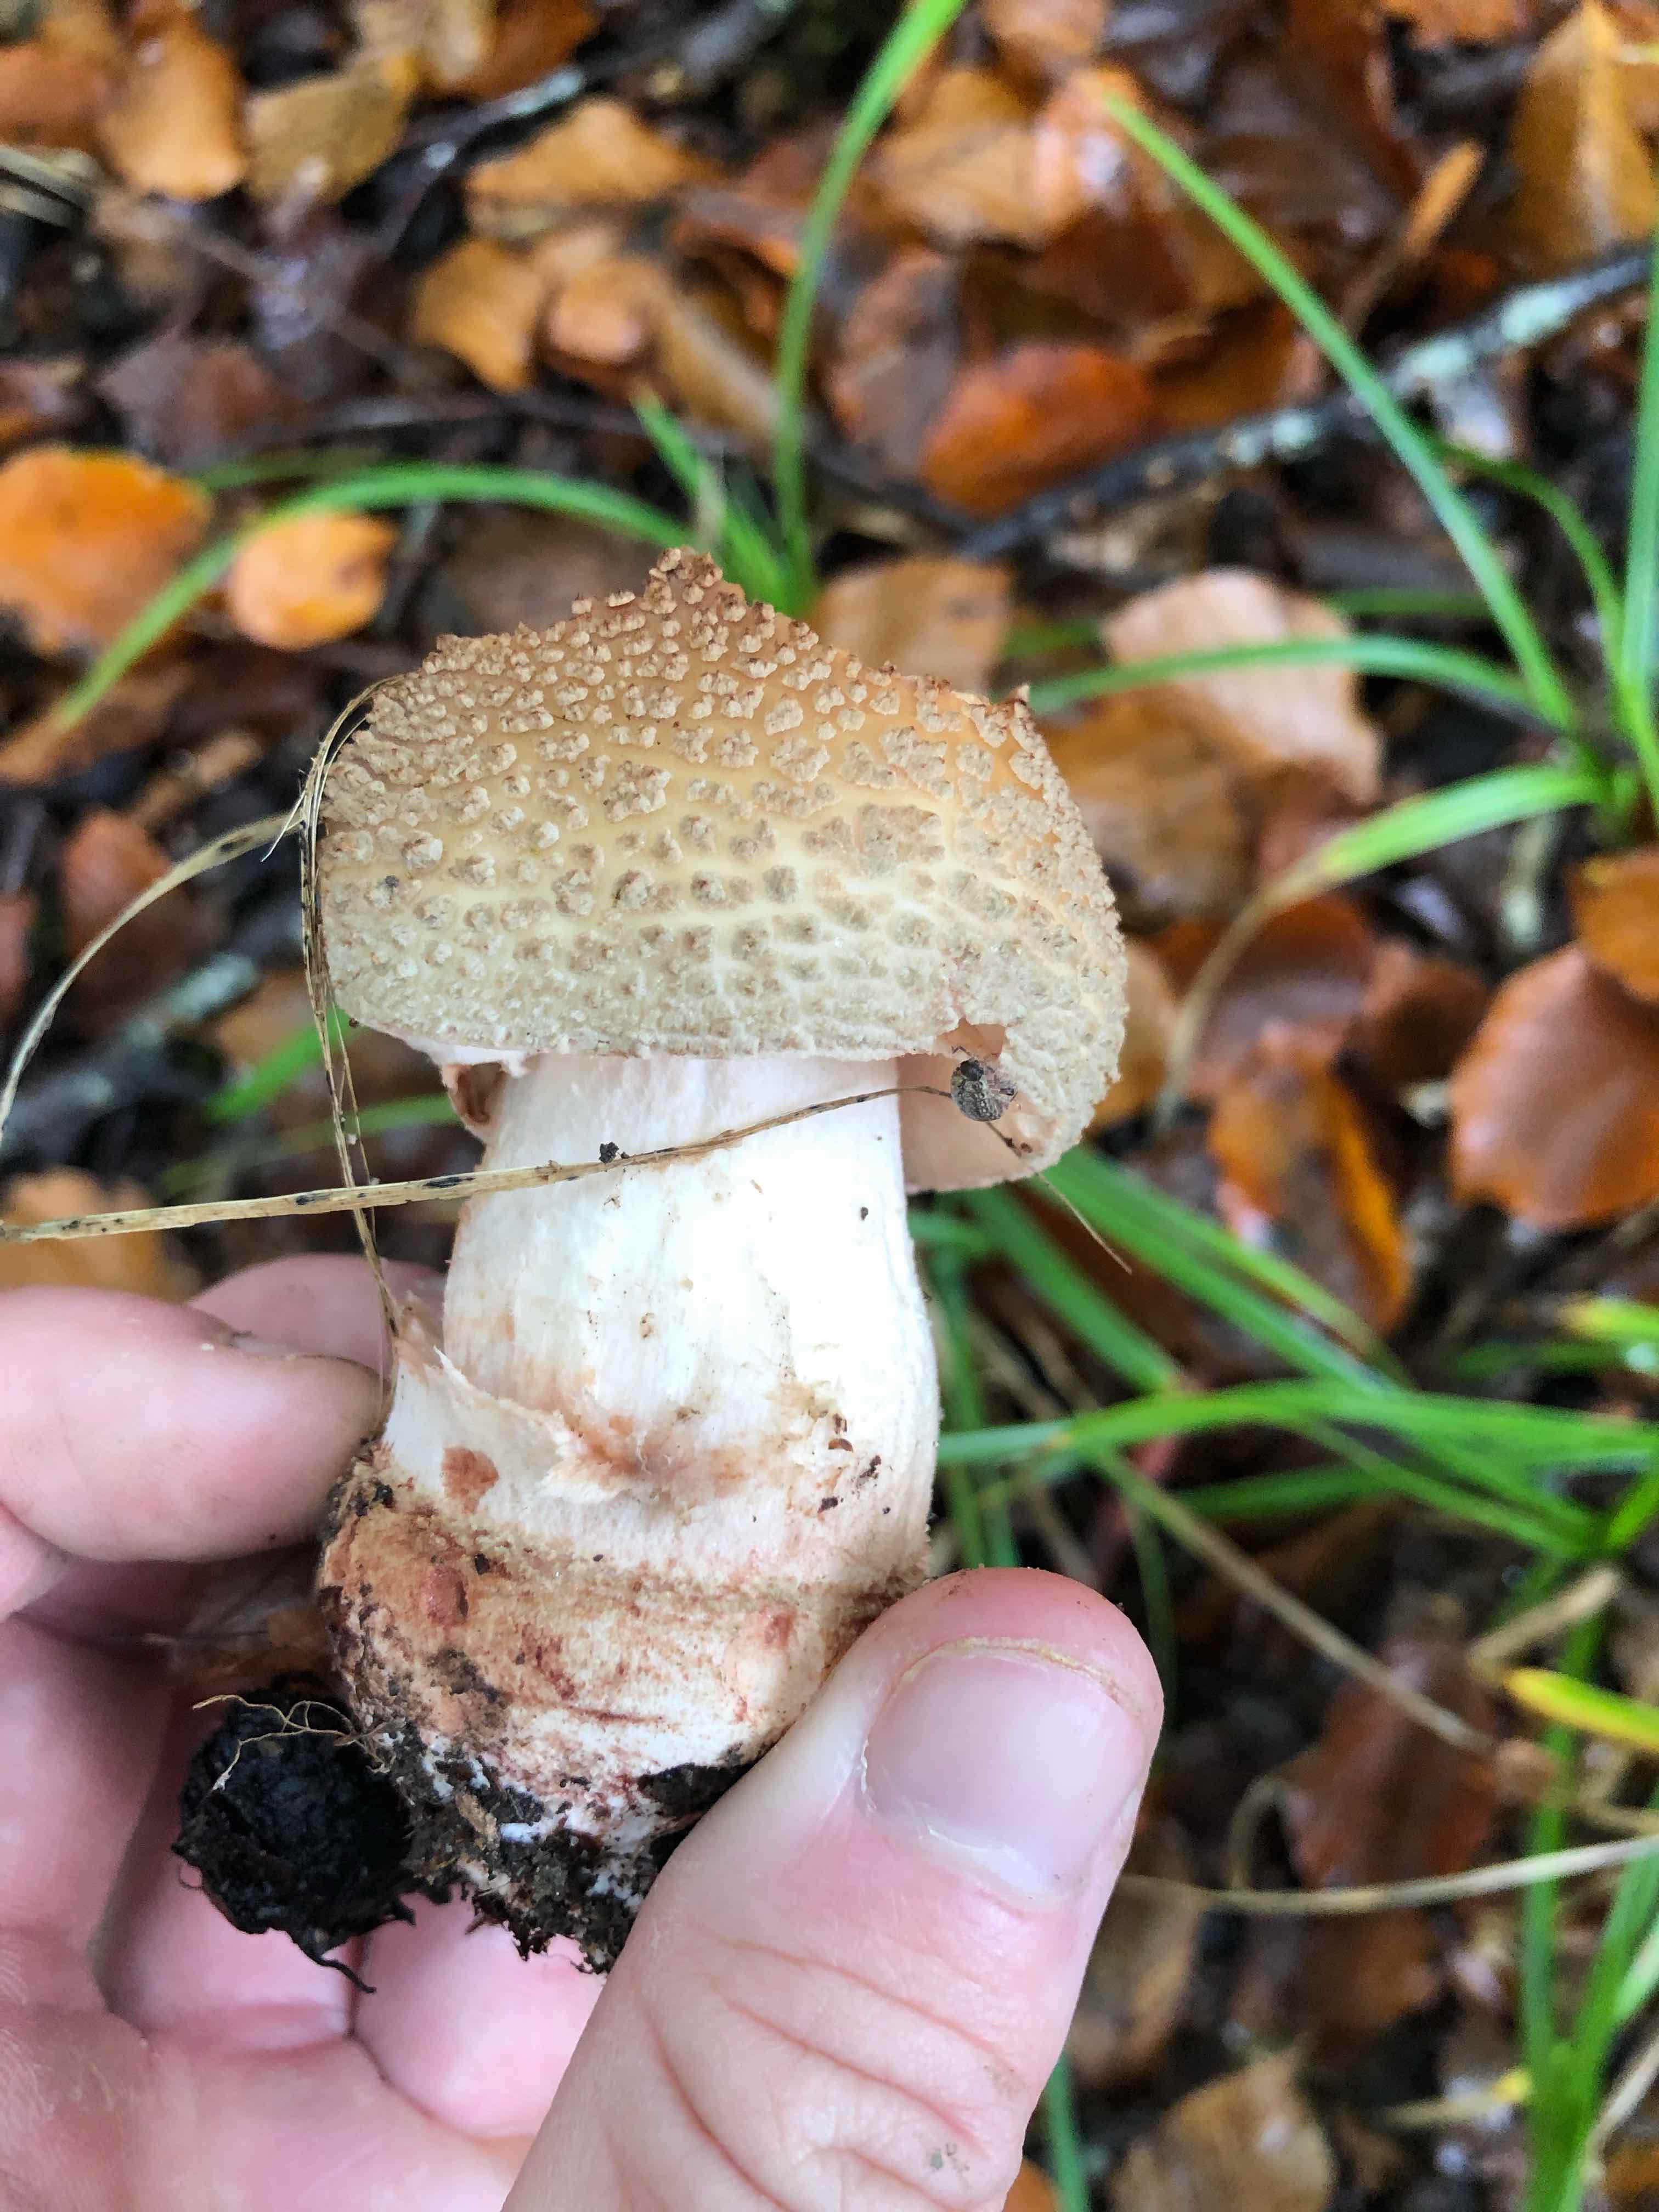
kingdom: Fungi
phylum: Basidiomycota
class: Agaricomycetes
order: Agaricales
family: Amanitaceae
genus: Amanita
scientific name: Amanita rubescens
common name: rødmende fluesvamp
